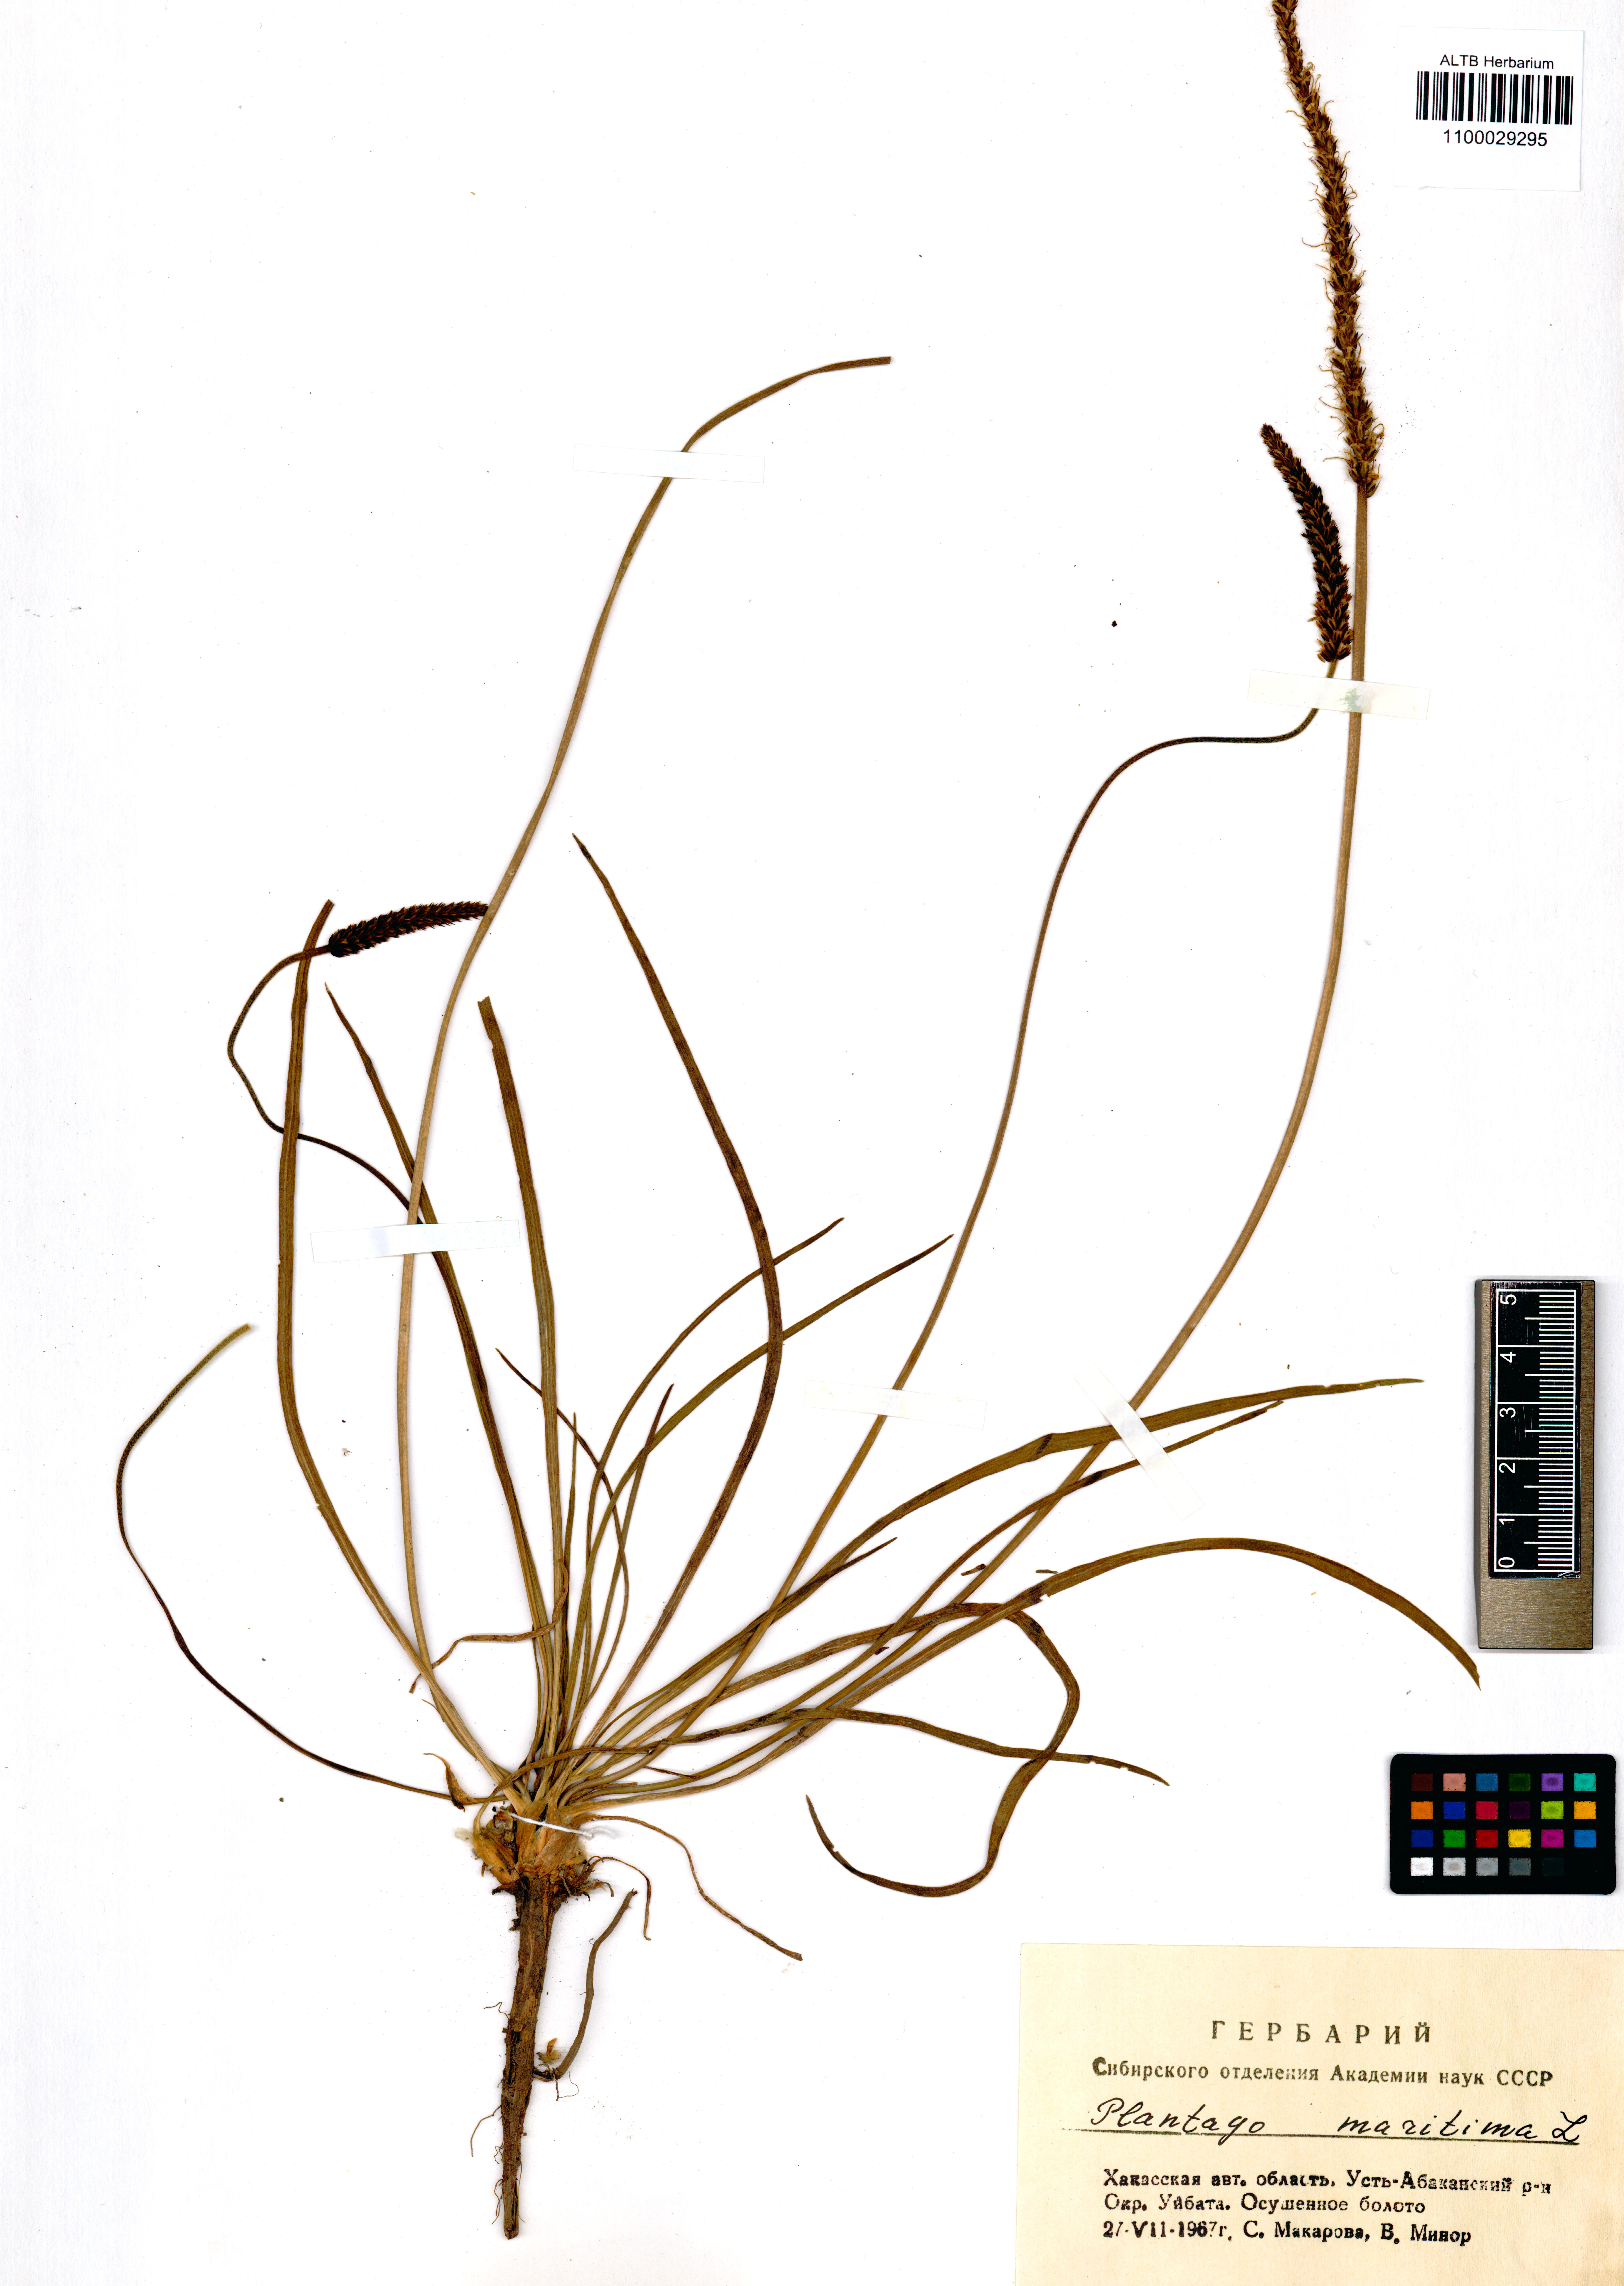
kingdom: Plantae
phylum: Tracheophyta
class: Magnoliopsida
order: Lamiales
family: Plantaginaceae
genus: Plantago
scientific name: Plantago maritima
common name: Sea plantain
